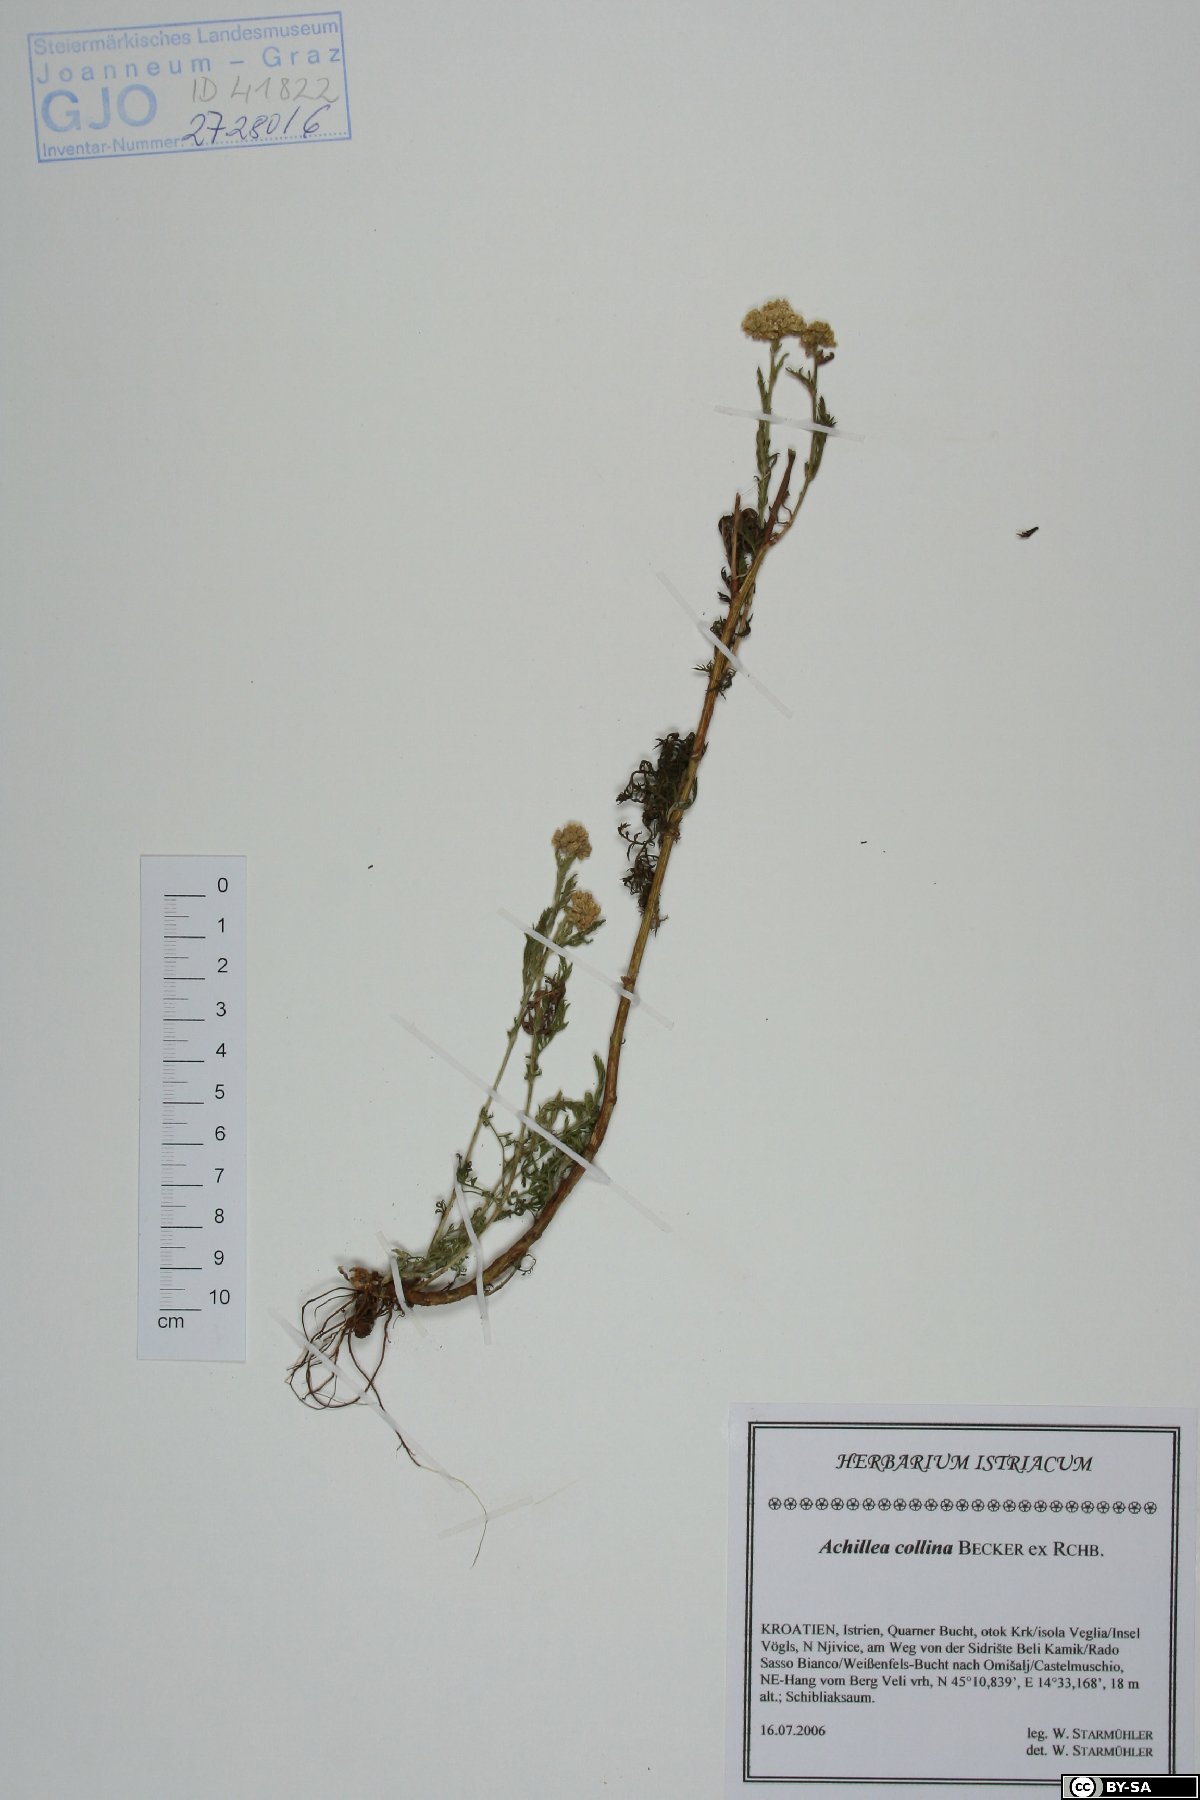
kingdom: Plantae
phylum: Tracheophyta
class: Magnoliopsida
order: Asterales
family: Asteraceae
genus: Achillea
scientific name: Achillea collina
